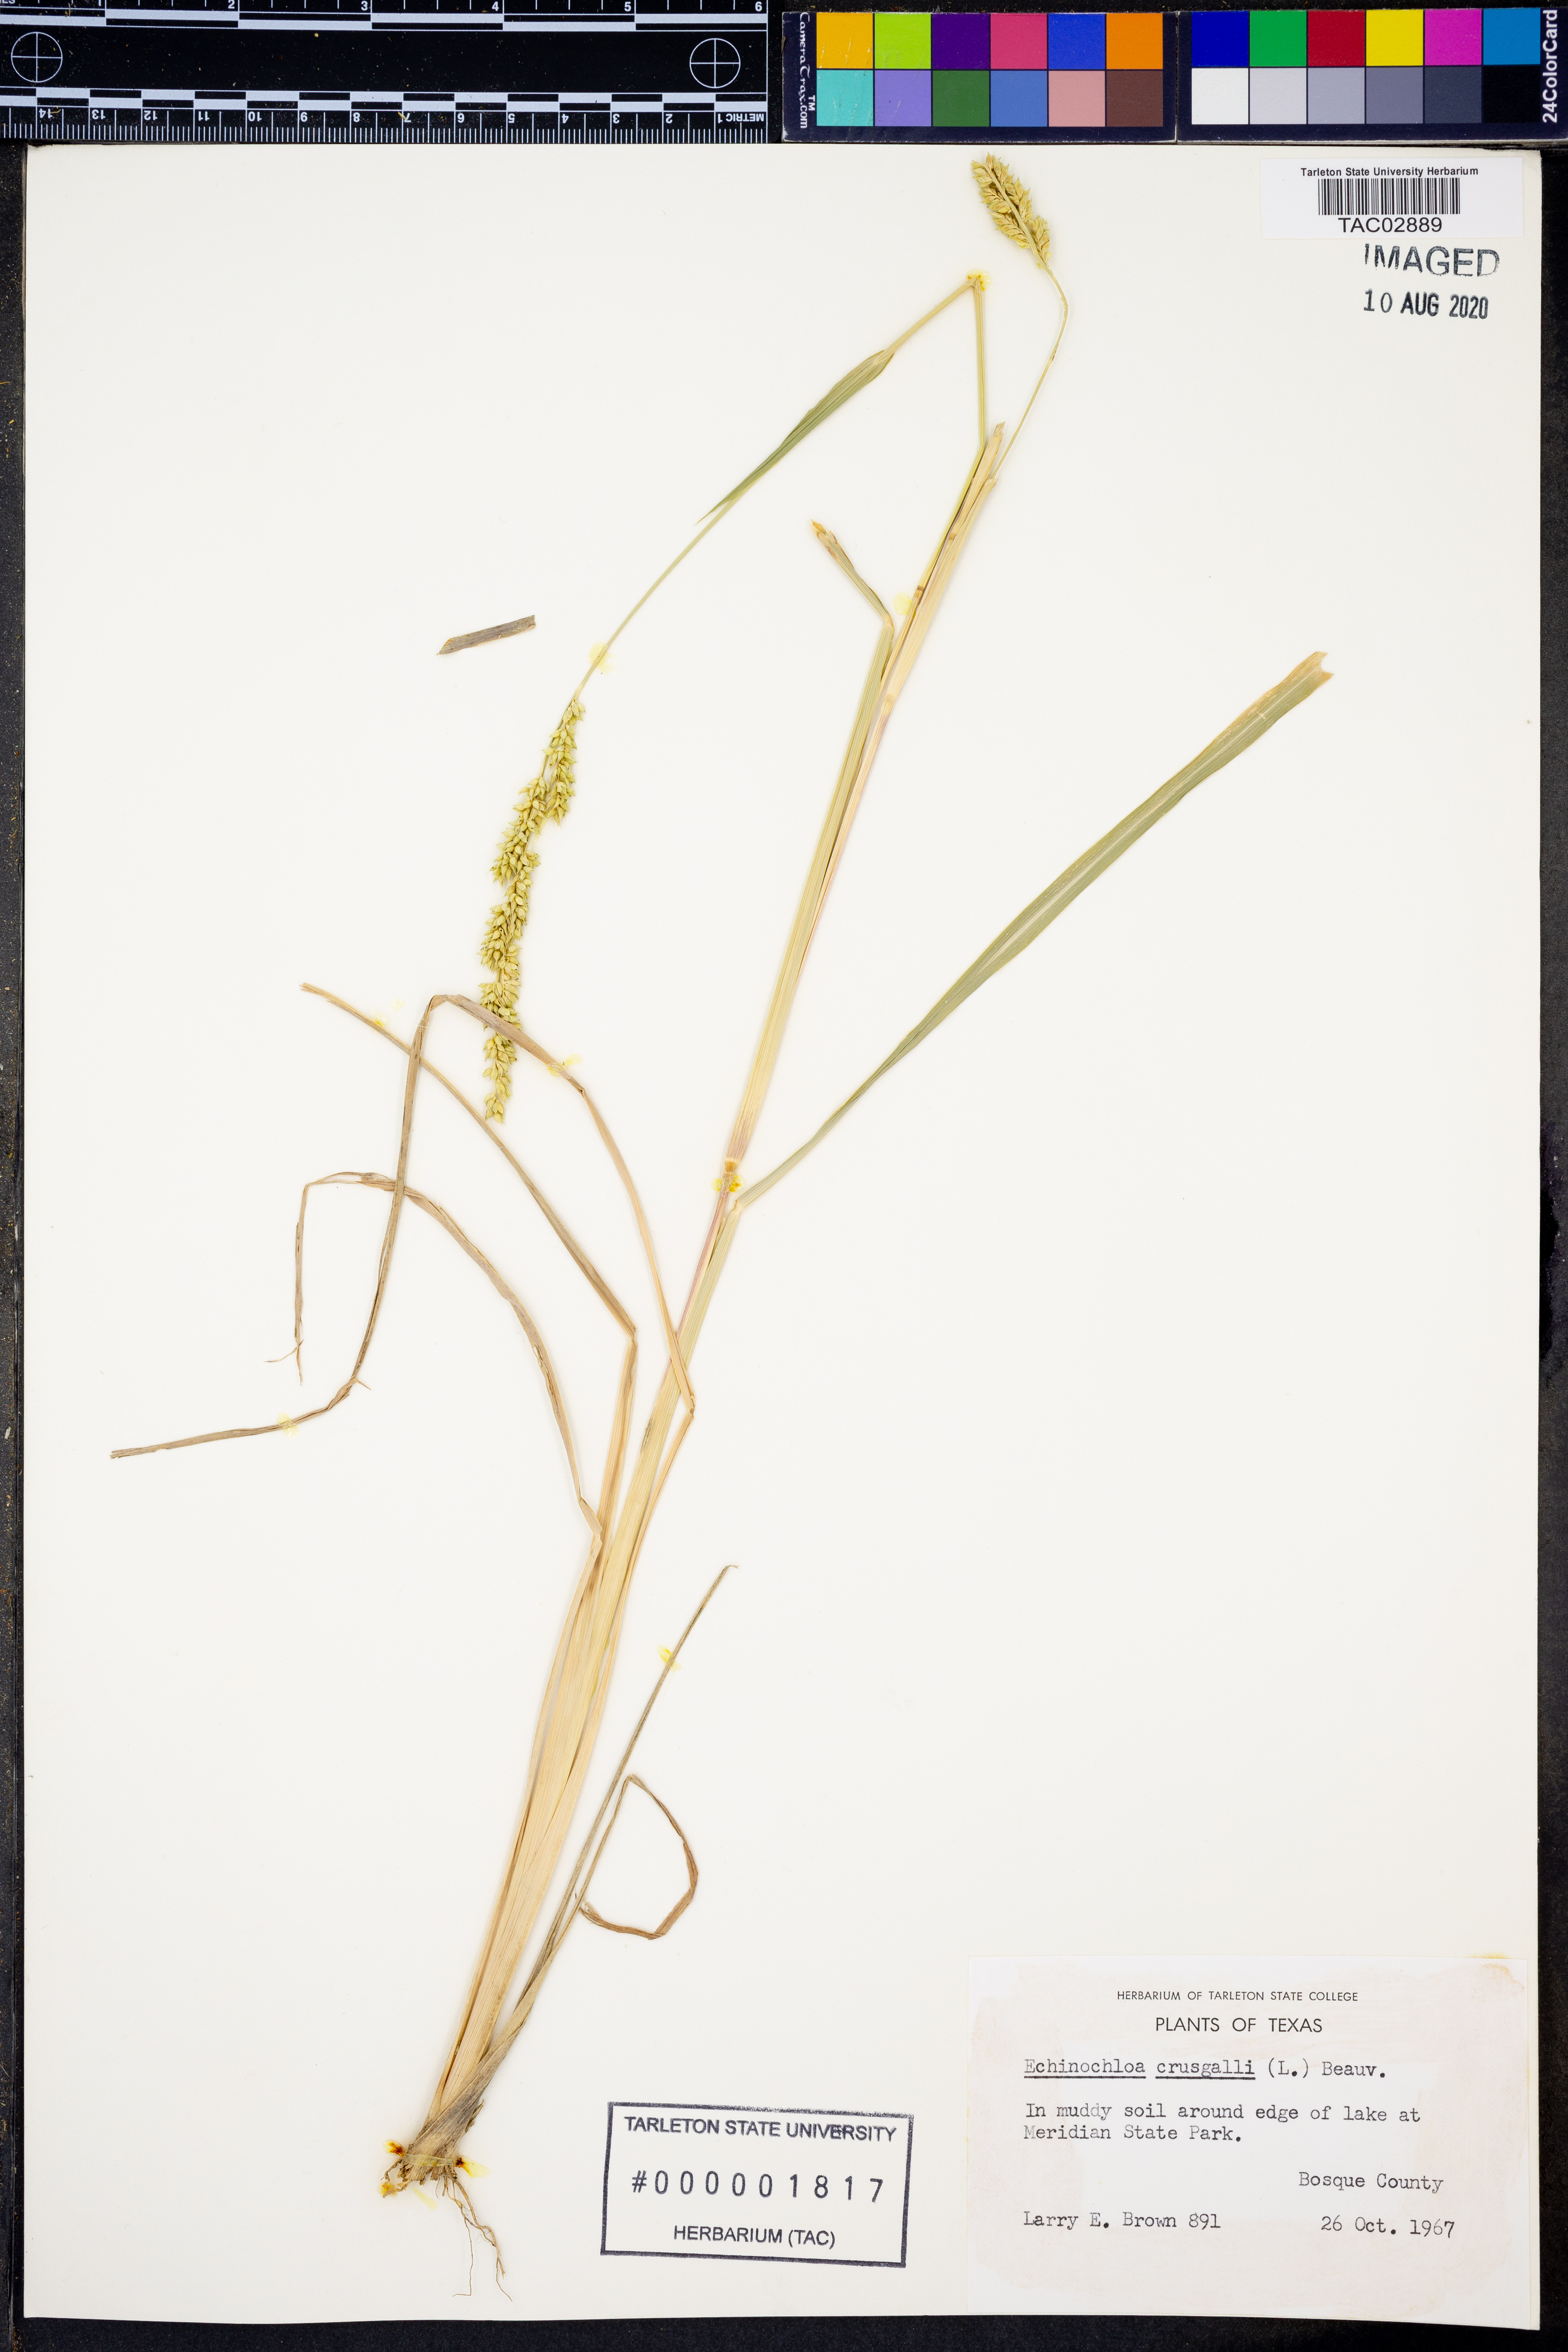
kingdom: Plantae
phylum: Tracheophyta
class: Liliopsida
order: Poales
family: Poaceae
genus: Echinochloa
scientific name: Echinochloa crus-galli
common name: Cockspur
